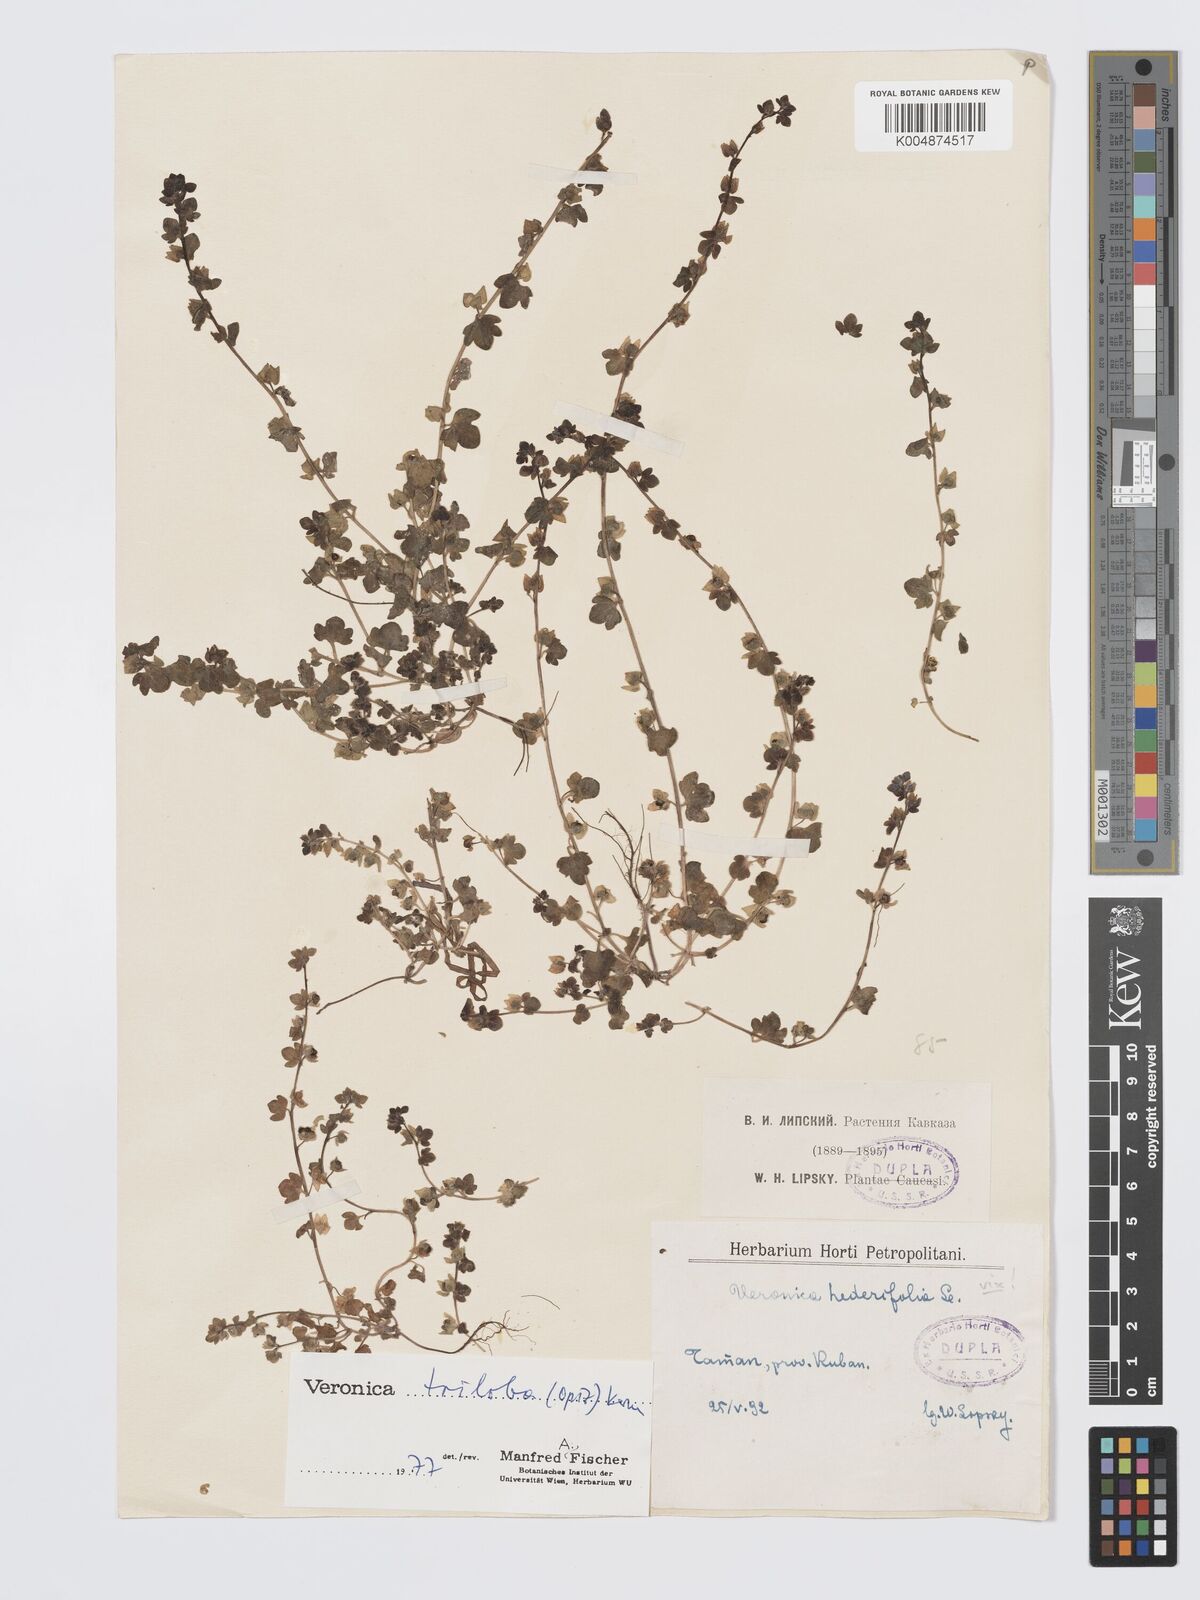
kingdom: Plantae
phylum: Tracheophyta
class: Magnoliopsida
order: Lamiales
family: Plantaginaceae
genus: Veronica
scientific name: Veronica triloba
